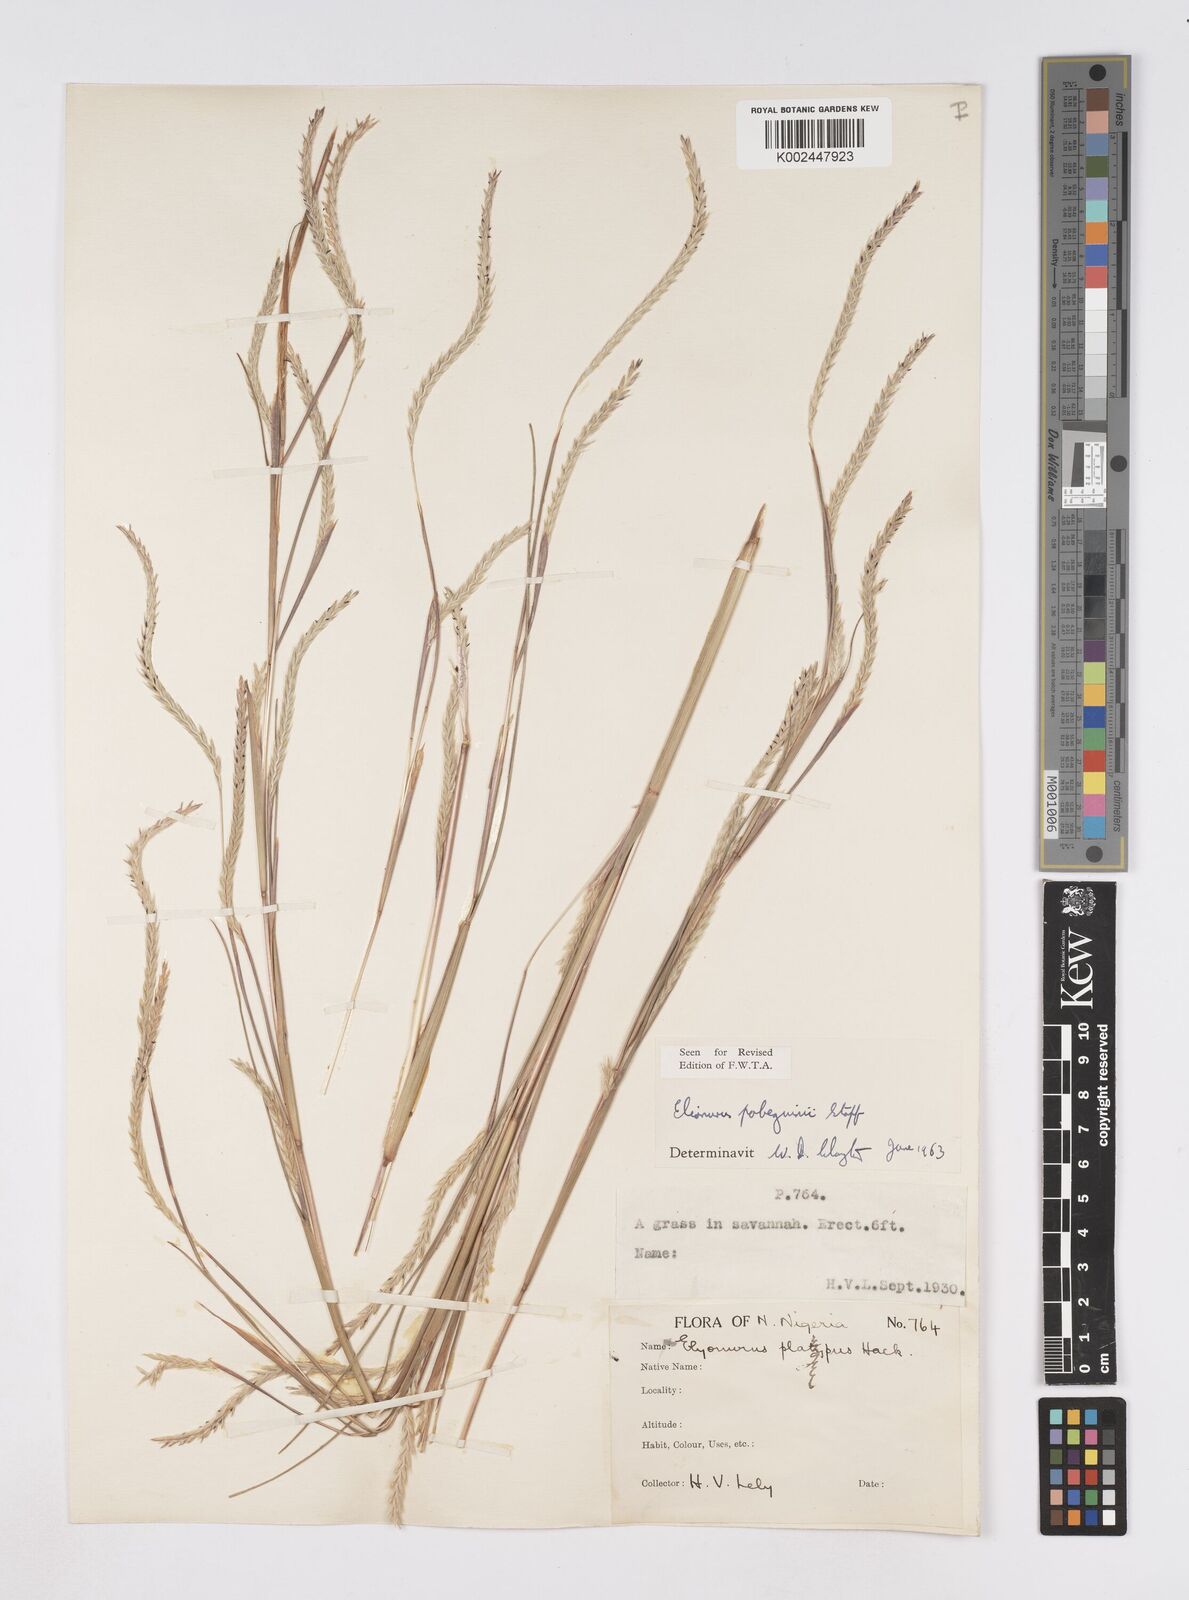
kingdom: Plantae
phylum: Tracheophyta
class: Liliopsida
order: Poales
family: Poaceae
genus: Elionurus
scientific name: Elionurus
